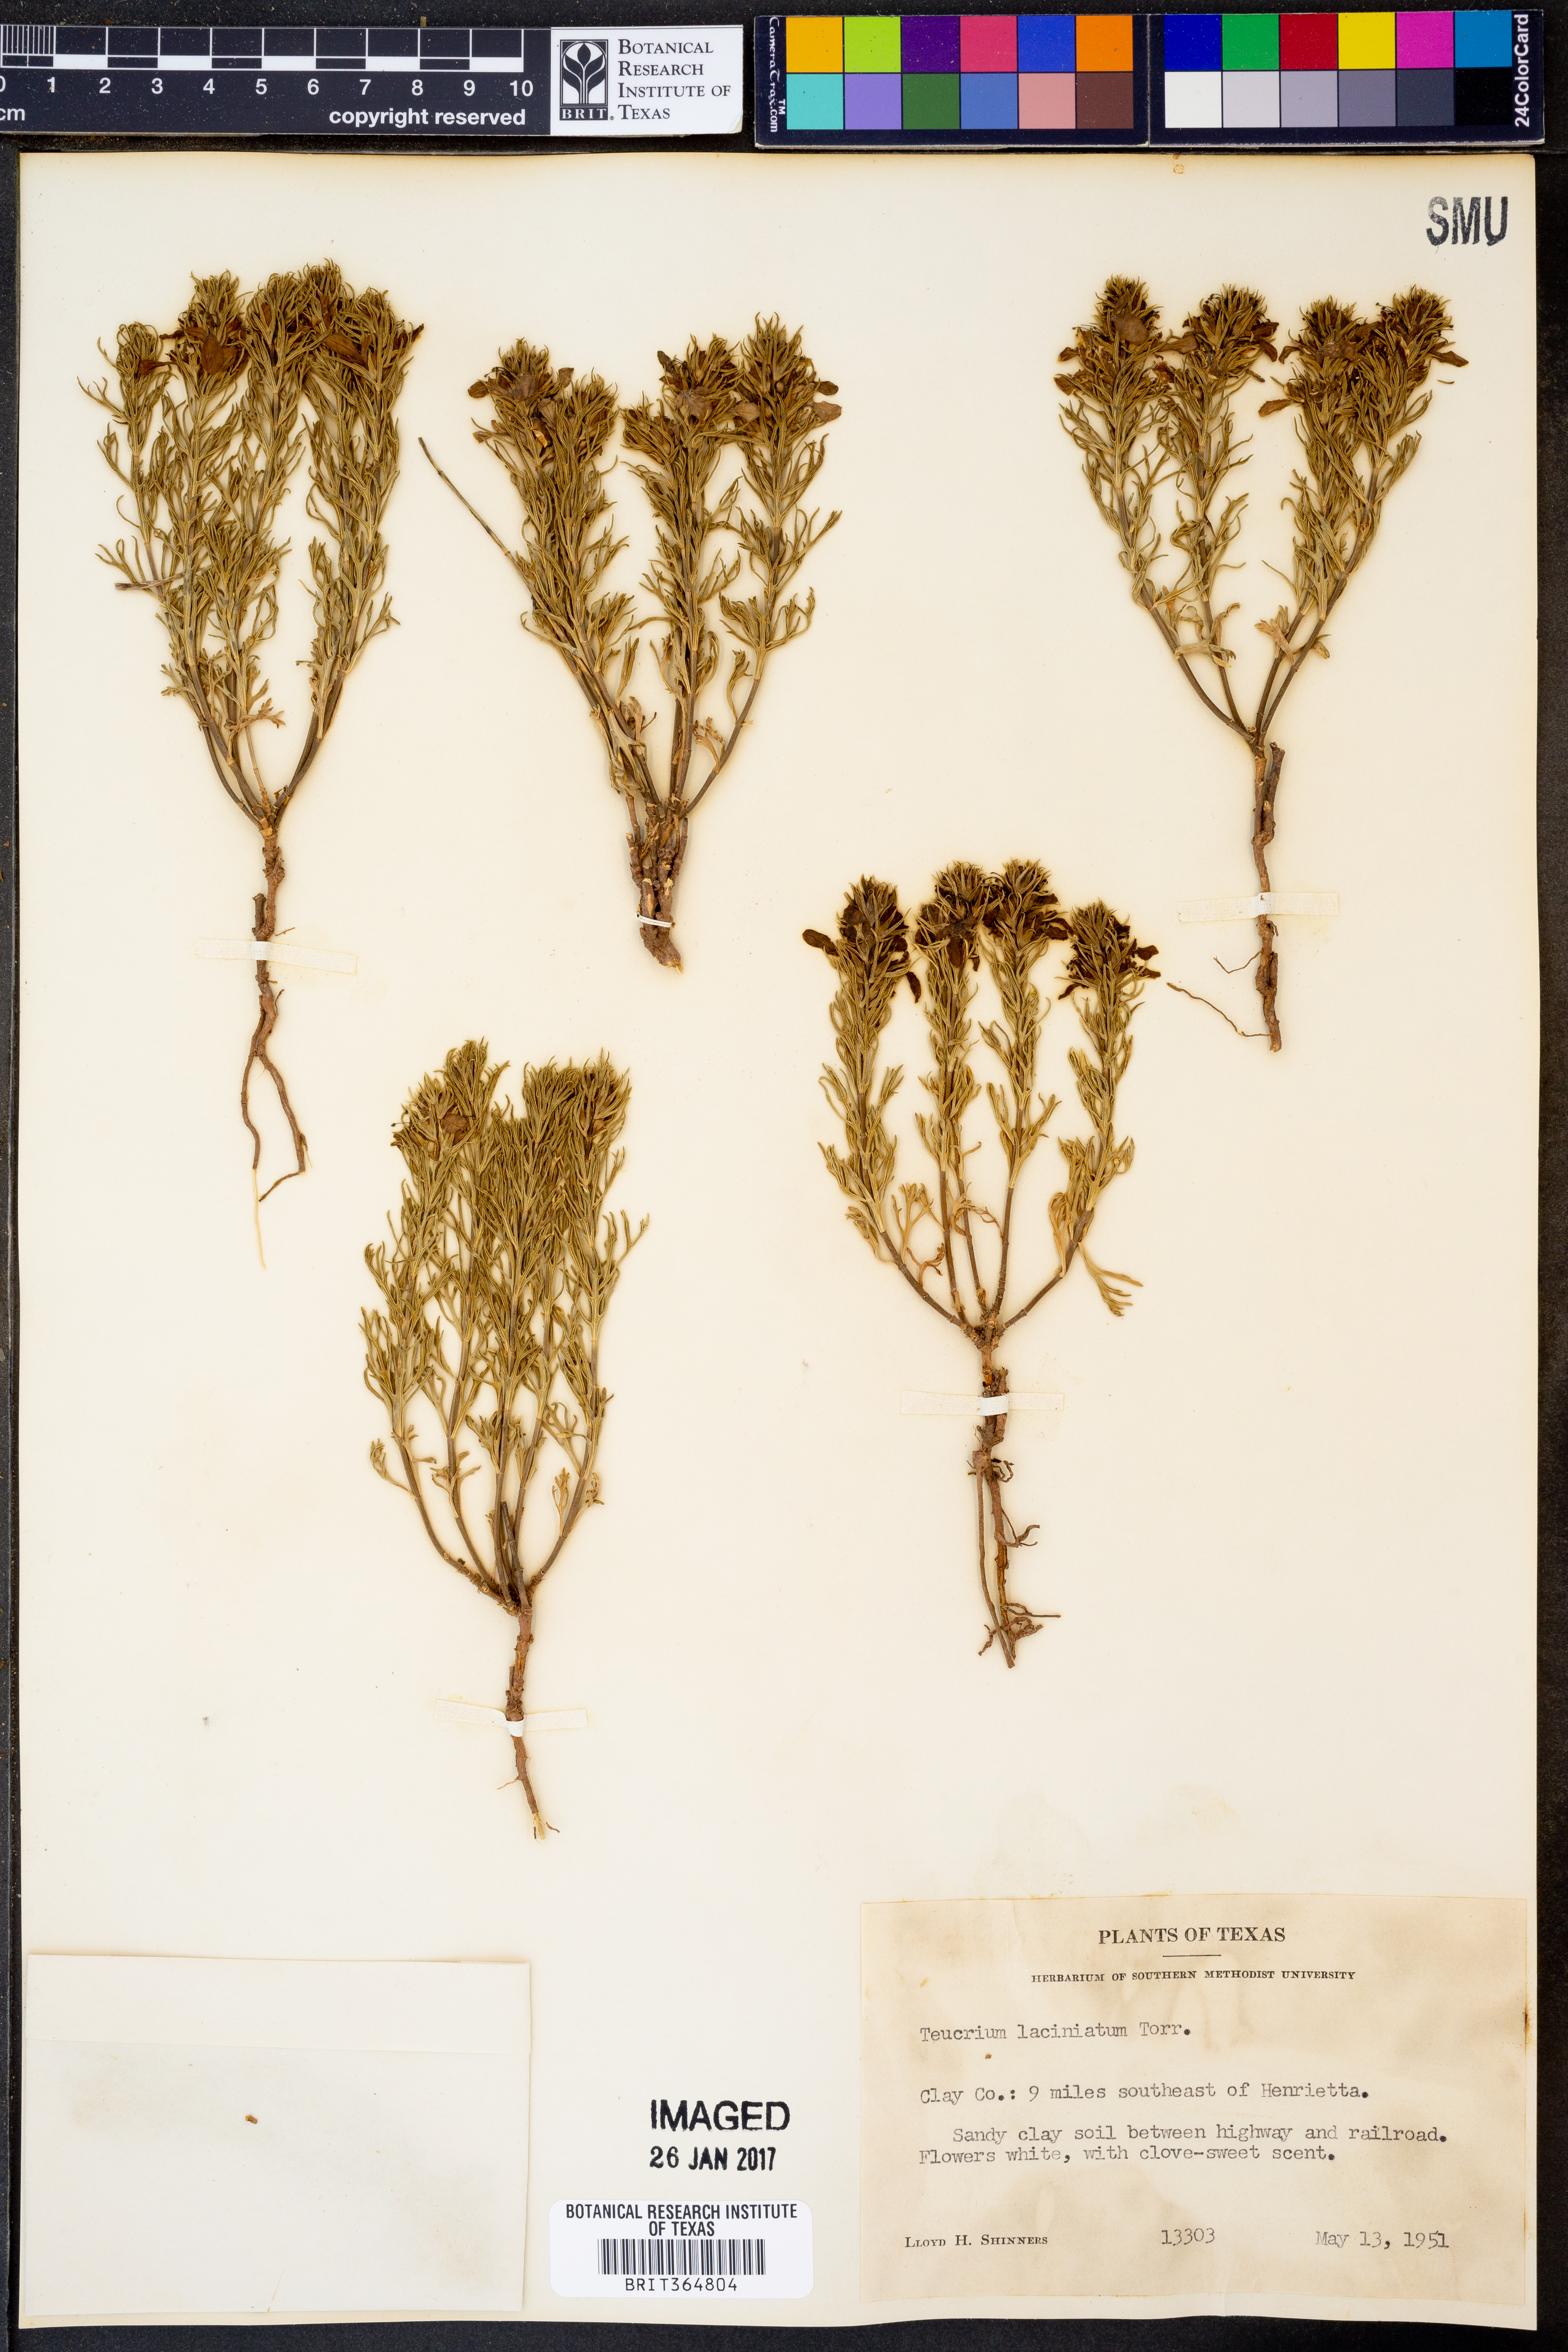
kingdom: Plantae
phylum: Tracheophyta
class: Magnoliopsida
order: Lamiales
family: Lamiaceae
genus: Teucrium
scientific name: Teucrium laciniatum
